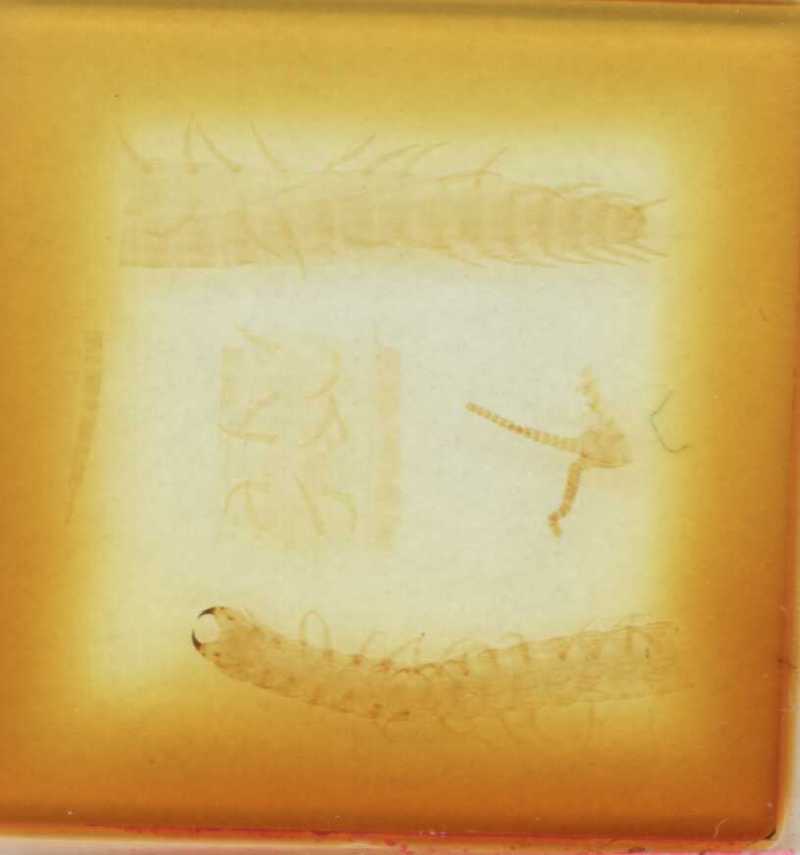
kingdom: Animalia
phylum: Arthropoda
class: Chilopoda
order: Geophilomorpha
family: Oryidae
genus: Orphnaeus
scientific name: Orphnaeus
